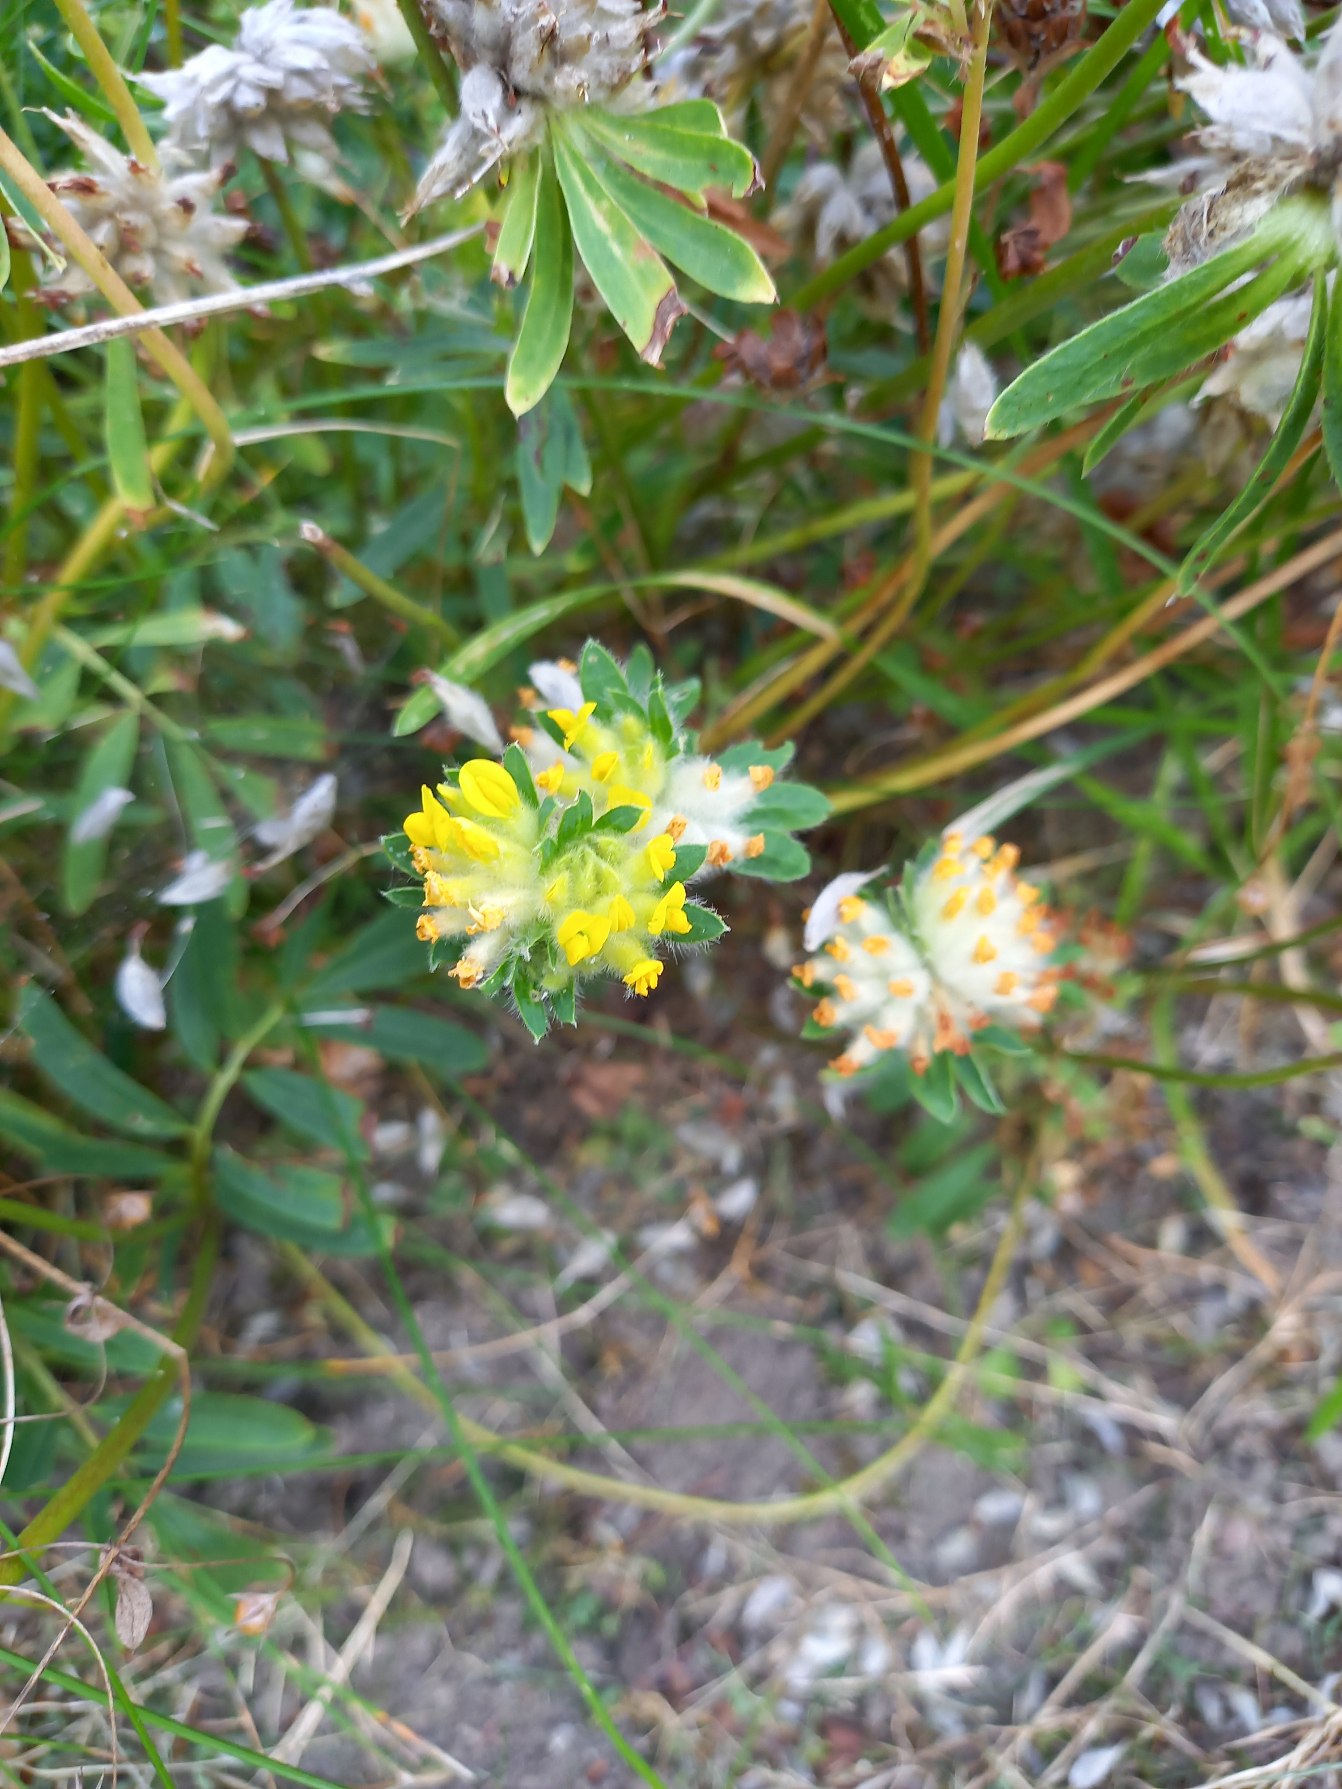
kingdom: Plantae
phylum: Tracheophyta
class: Magnoliopsida
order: Fabales
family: Fabaceae
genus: Anthyllis
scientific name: Anthyllis vulneraria
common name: Rundbælg
